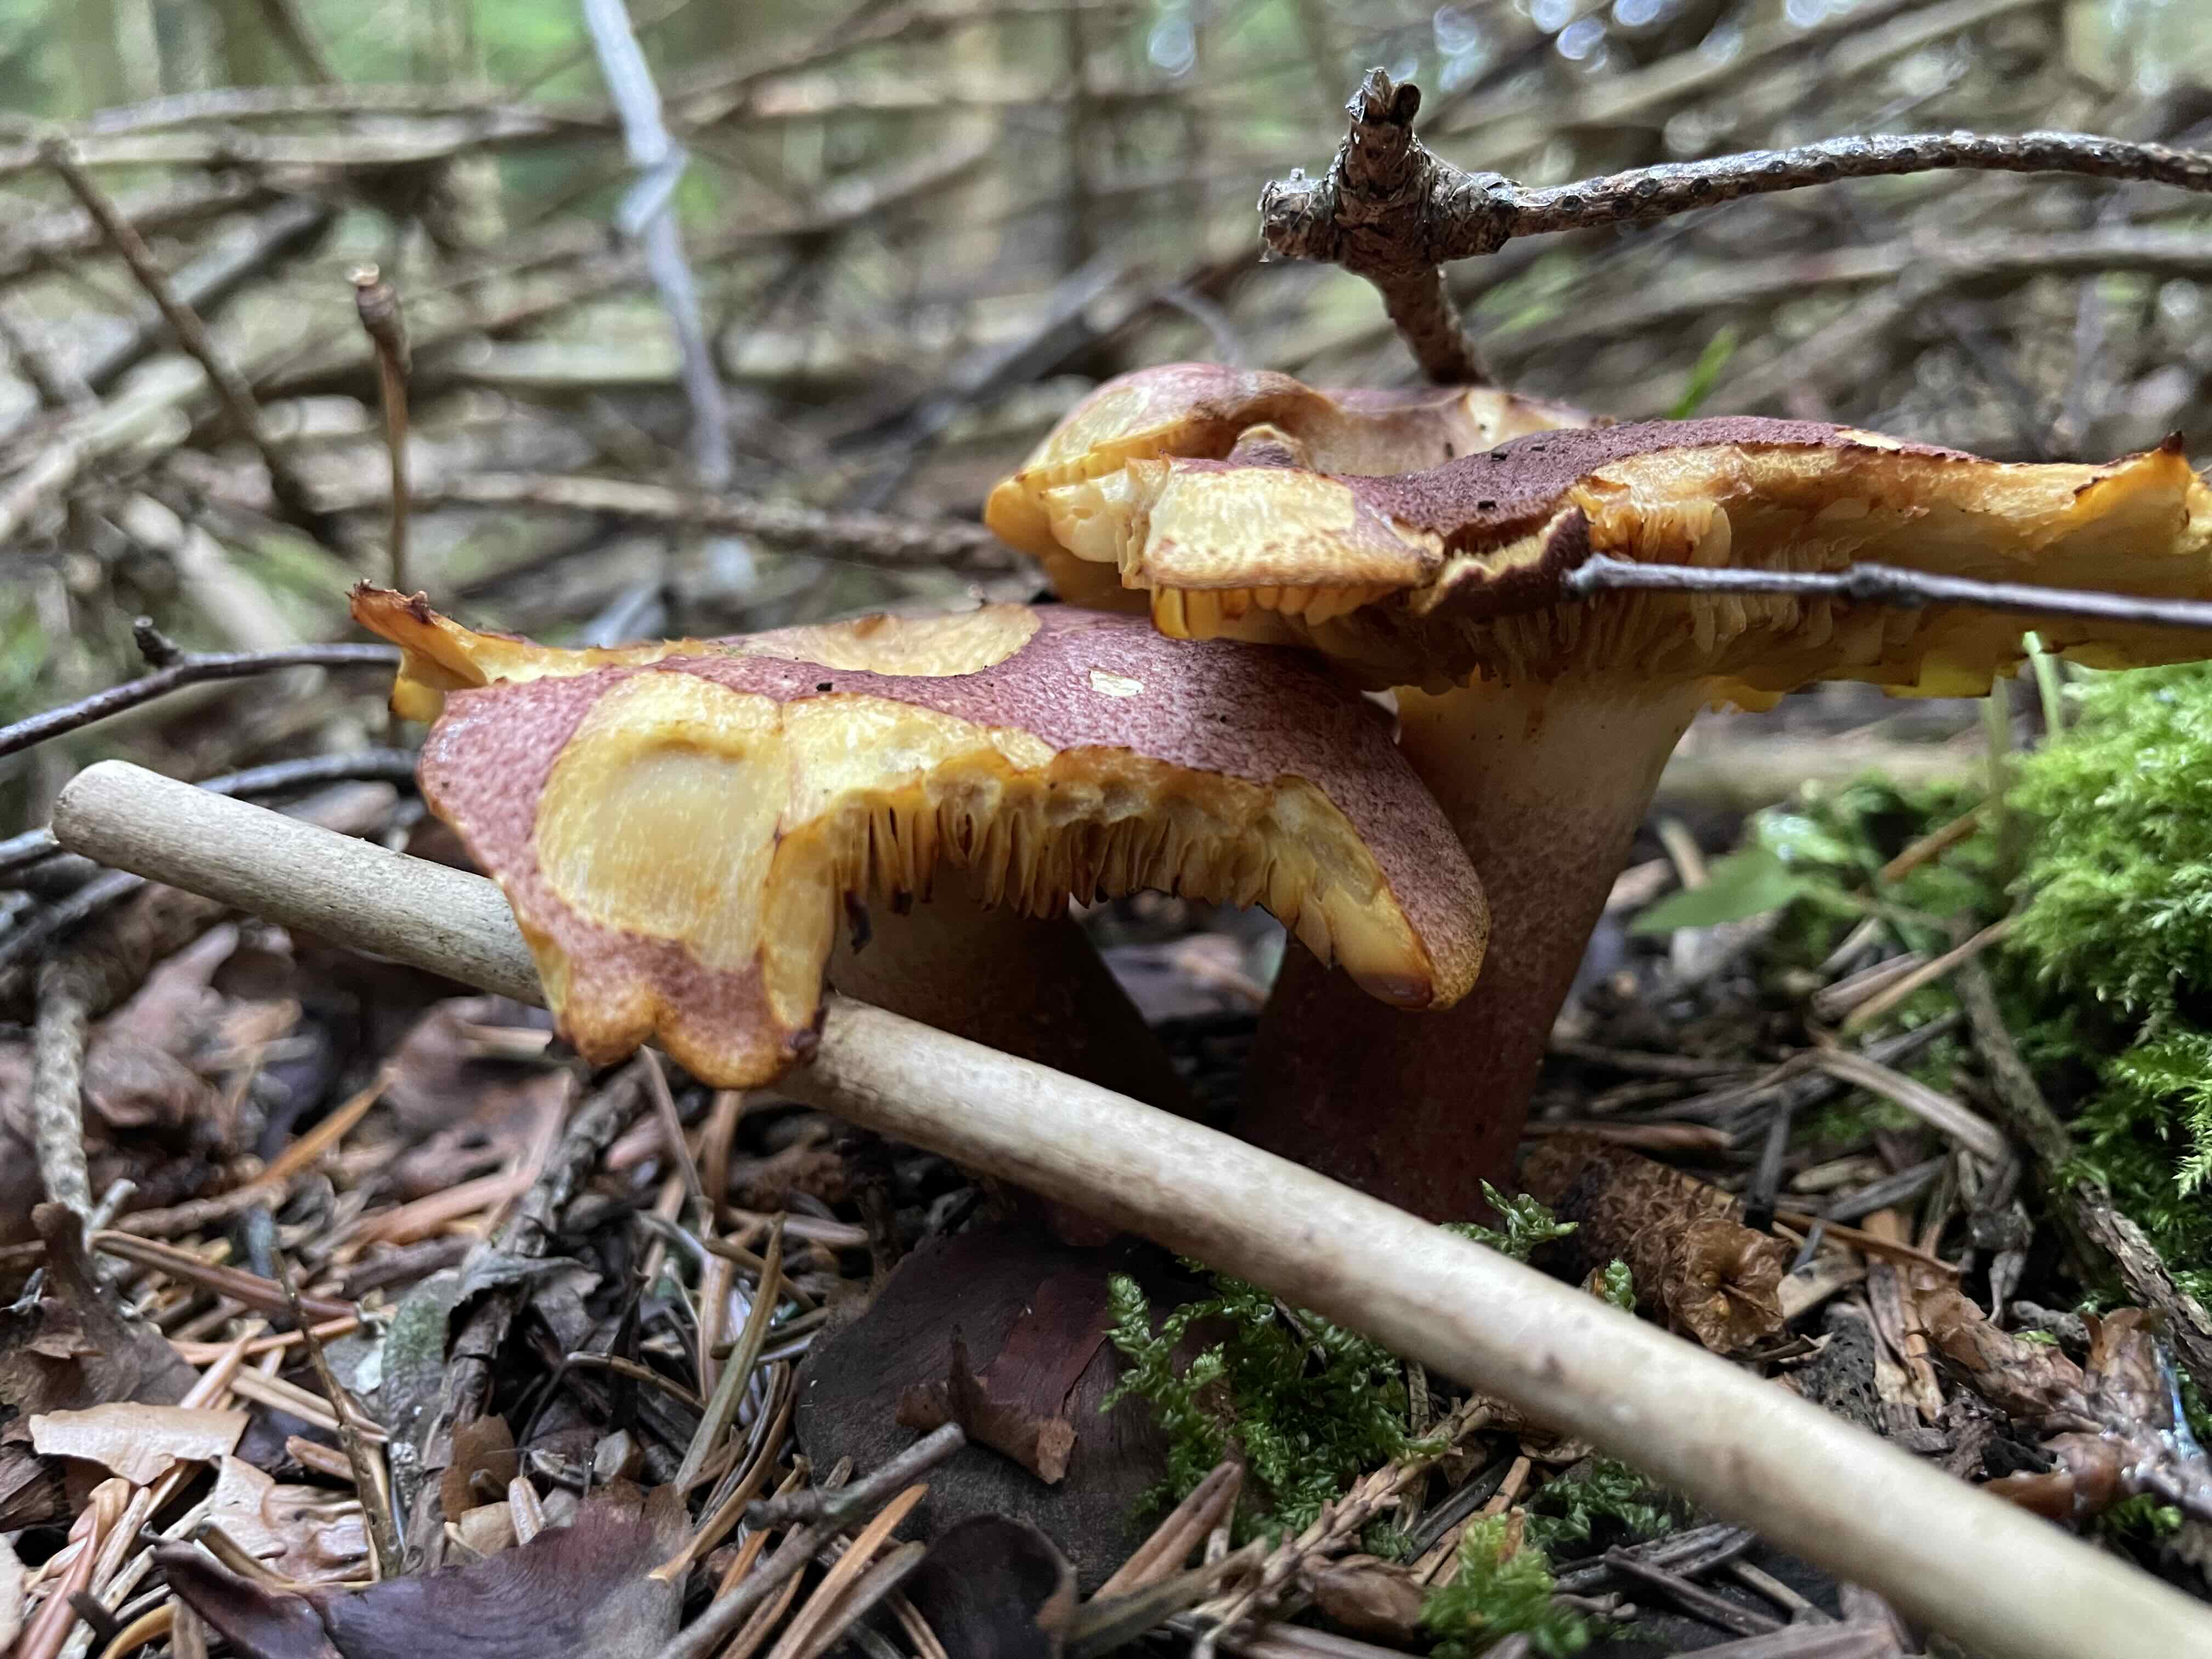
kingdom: Fungi
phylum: Basidiomycota
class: Agaricomycetes
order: Agaricales
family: Tricholomataceae
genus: Tricholomopsis
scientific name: Tricholomopsis rutilans
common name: purpur-væbnerhat
